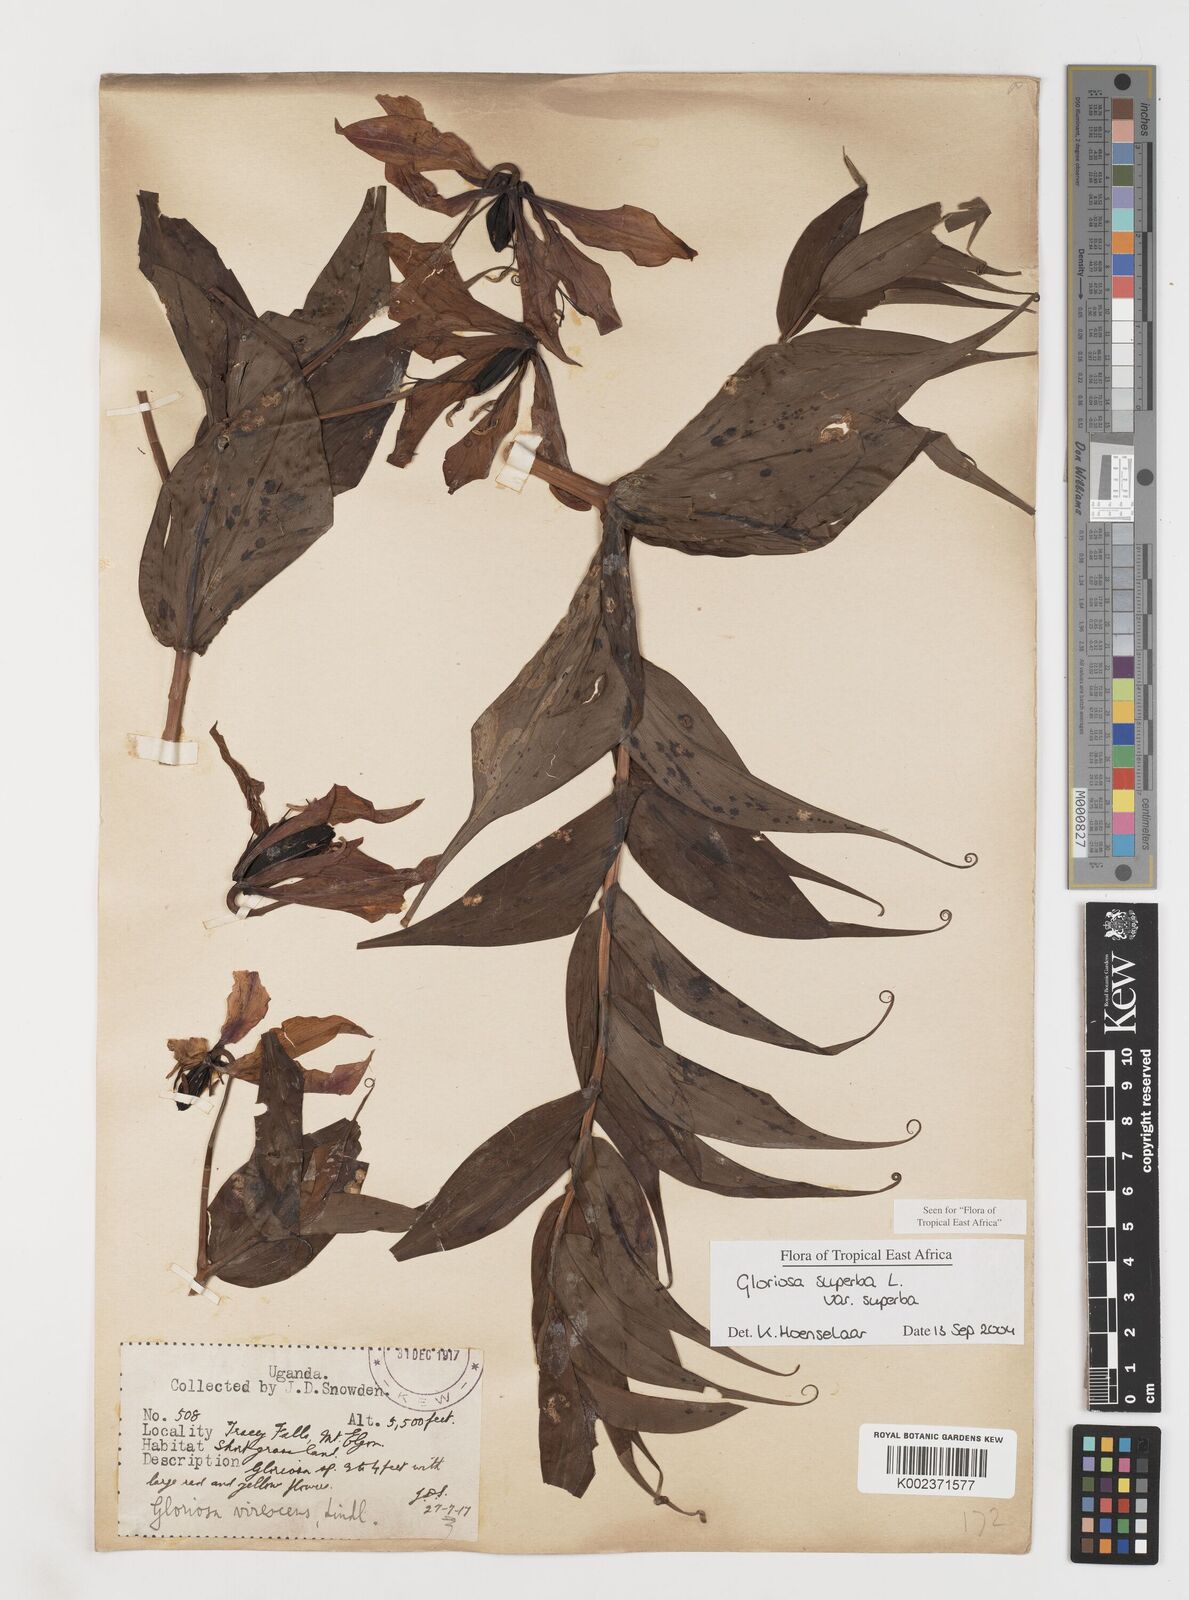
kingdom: Plantae
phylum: Tracheophyta
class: Liliopsida
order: Liliales
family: Colchicaceae
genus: Gloriosa
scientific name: Gloriosa simplex
